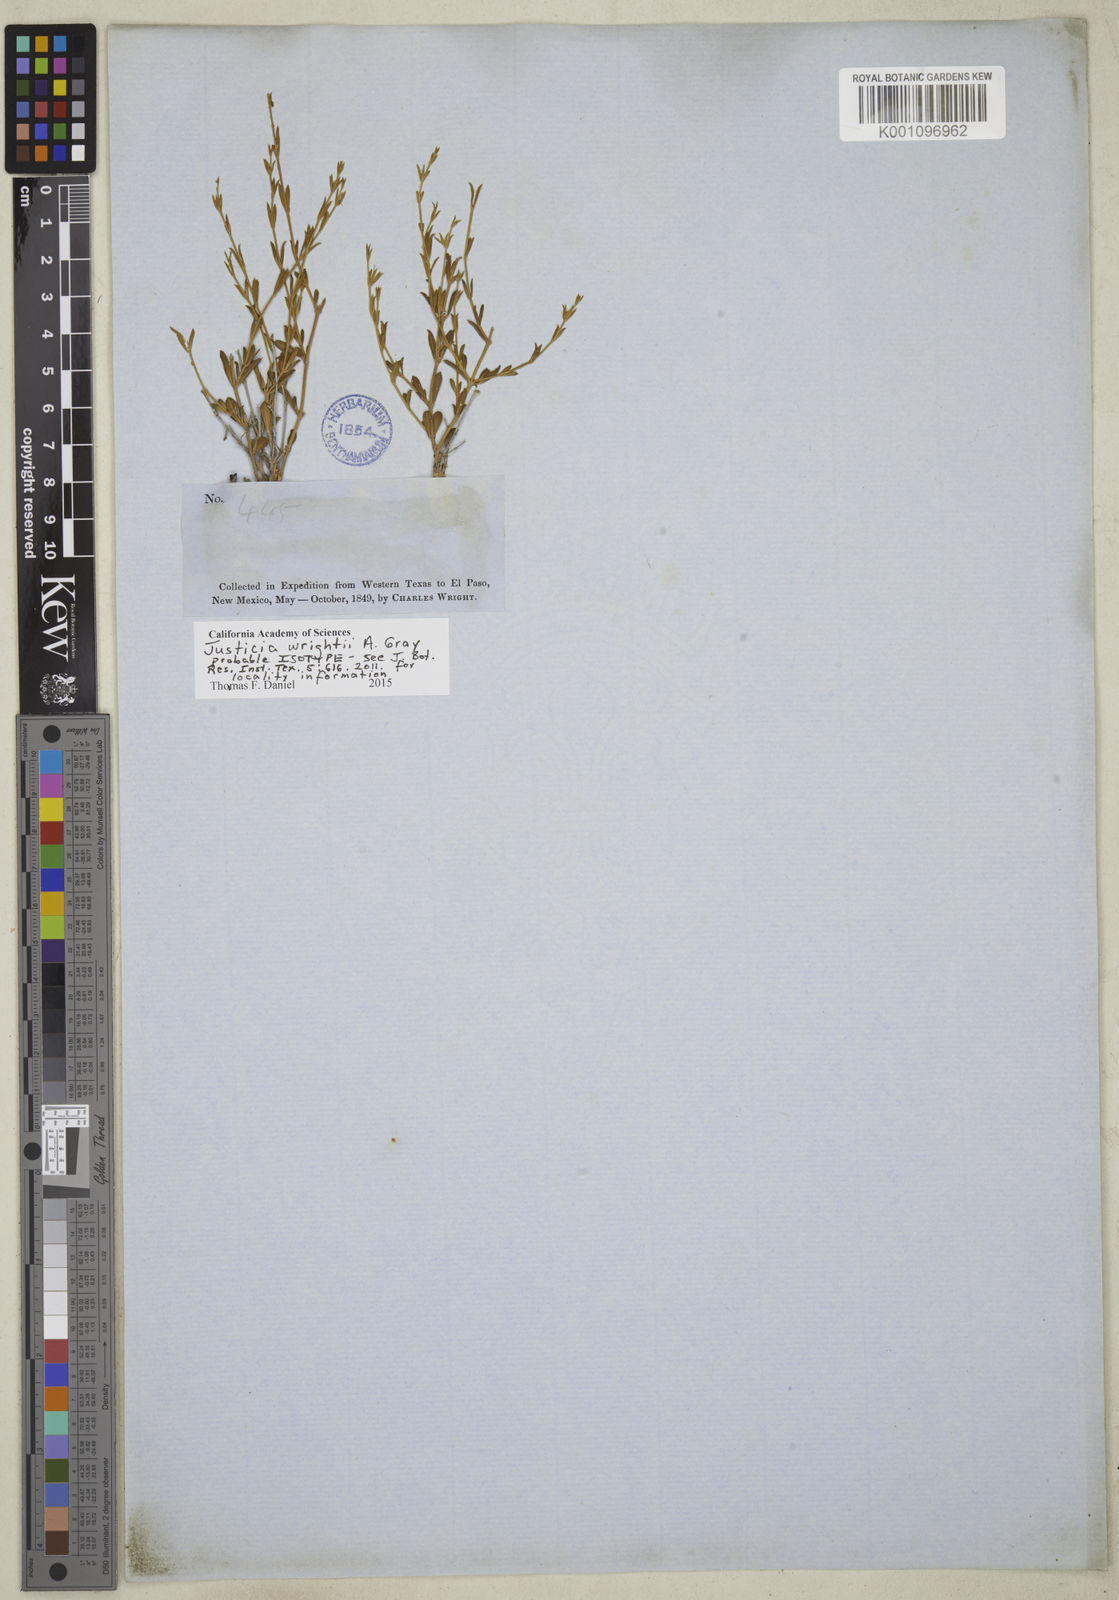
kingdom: Plantae
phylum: Tracheophyta
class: Magnoliopsida
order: Lamiales
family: Acanthaceae
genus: Justicia
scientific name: Justicia wrightii
